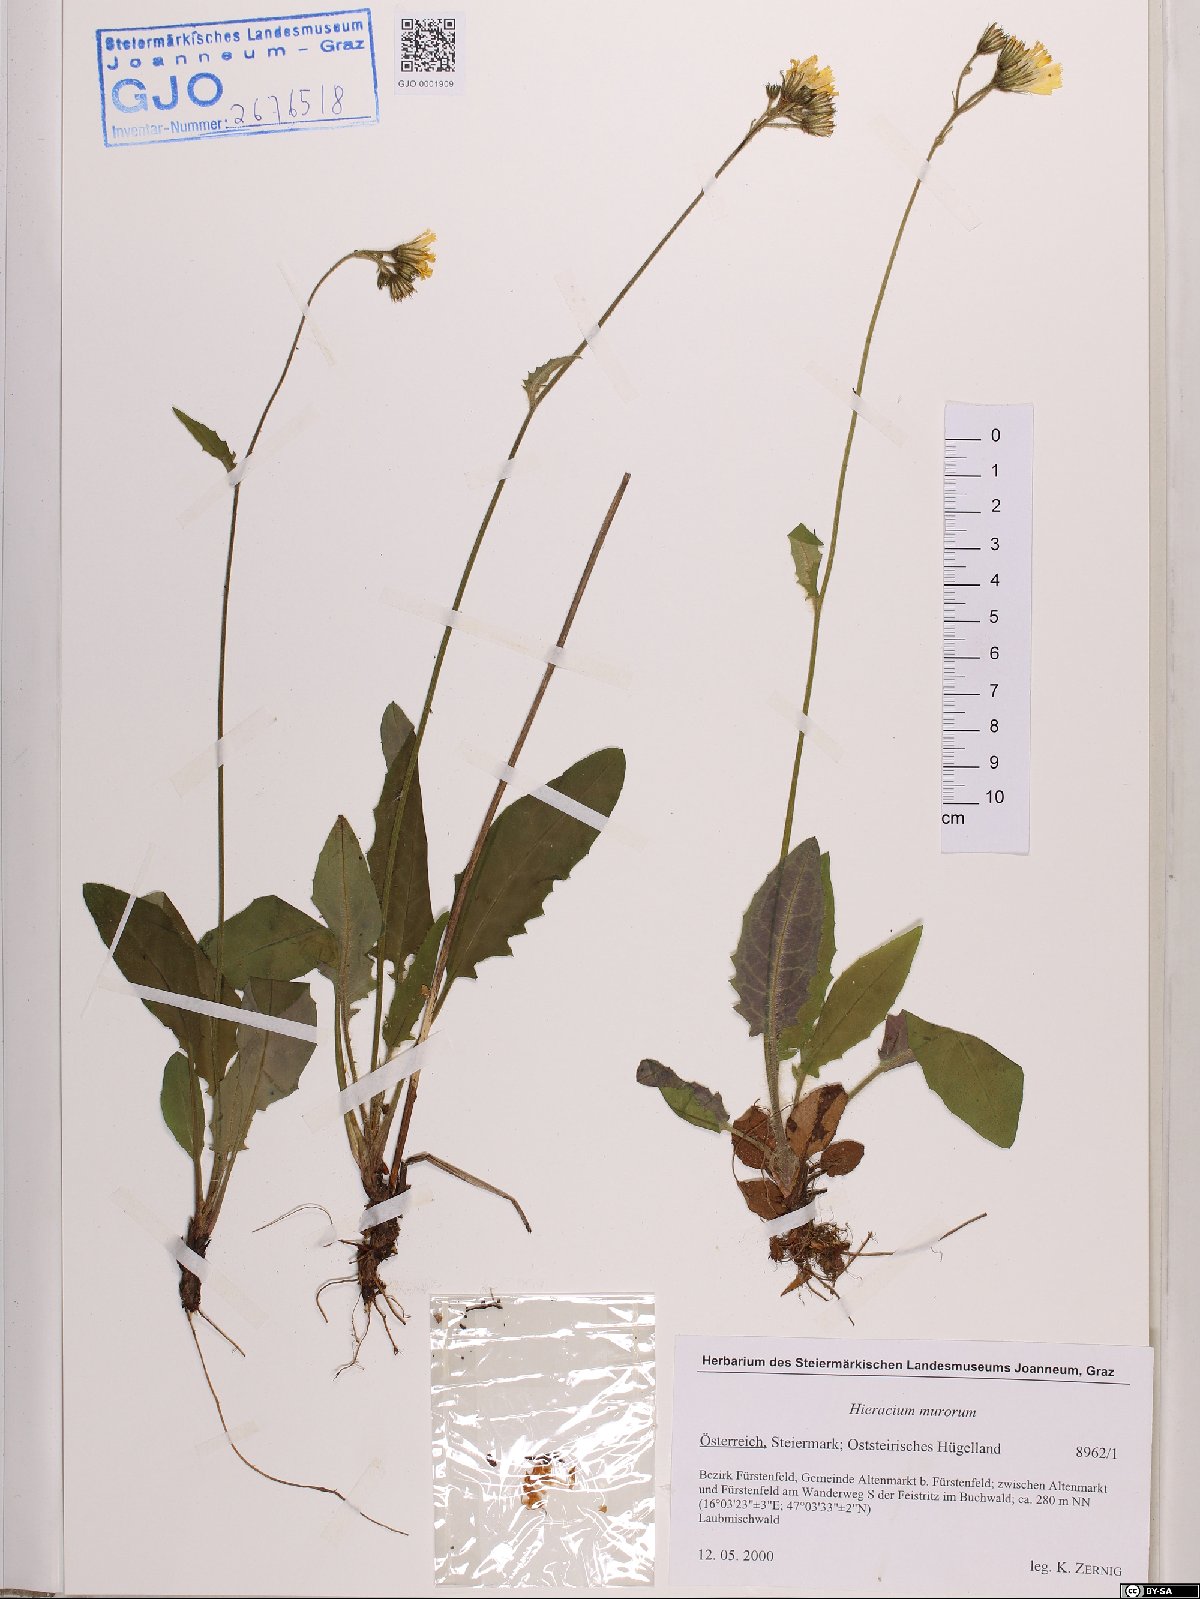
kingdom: Plantae
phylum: Tracheophyta
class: Magnoliopsida
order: Asterales
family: Asteraceae
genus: Hieracium
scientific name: Hieracium murorum
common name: Wall hawkweed
